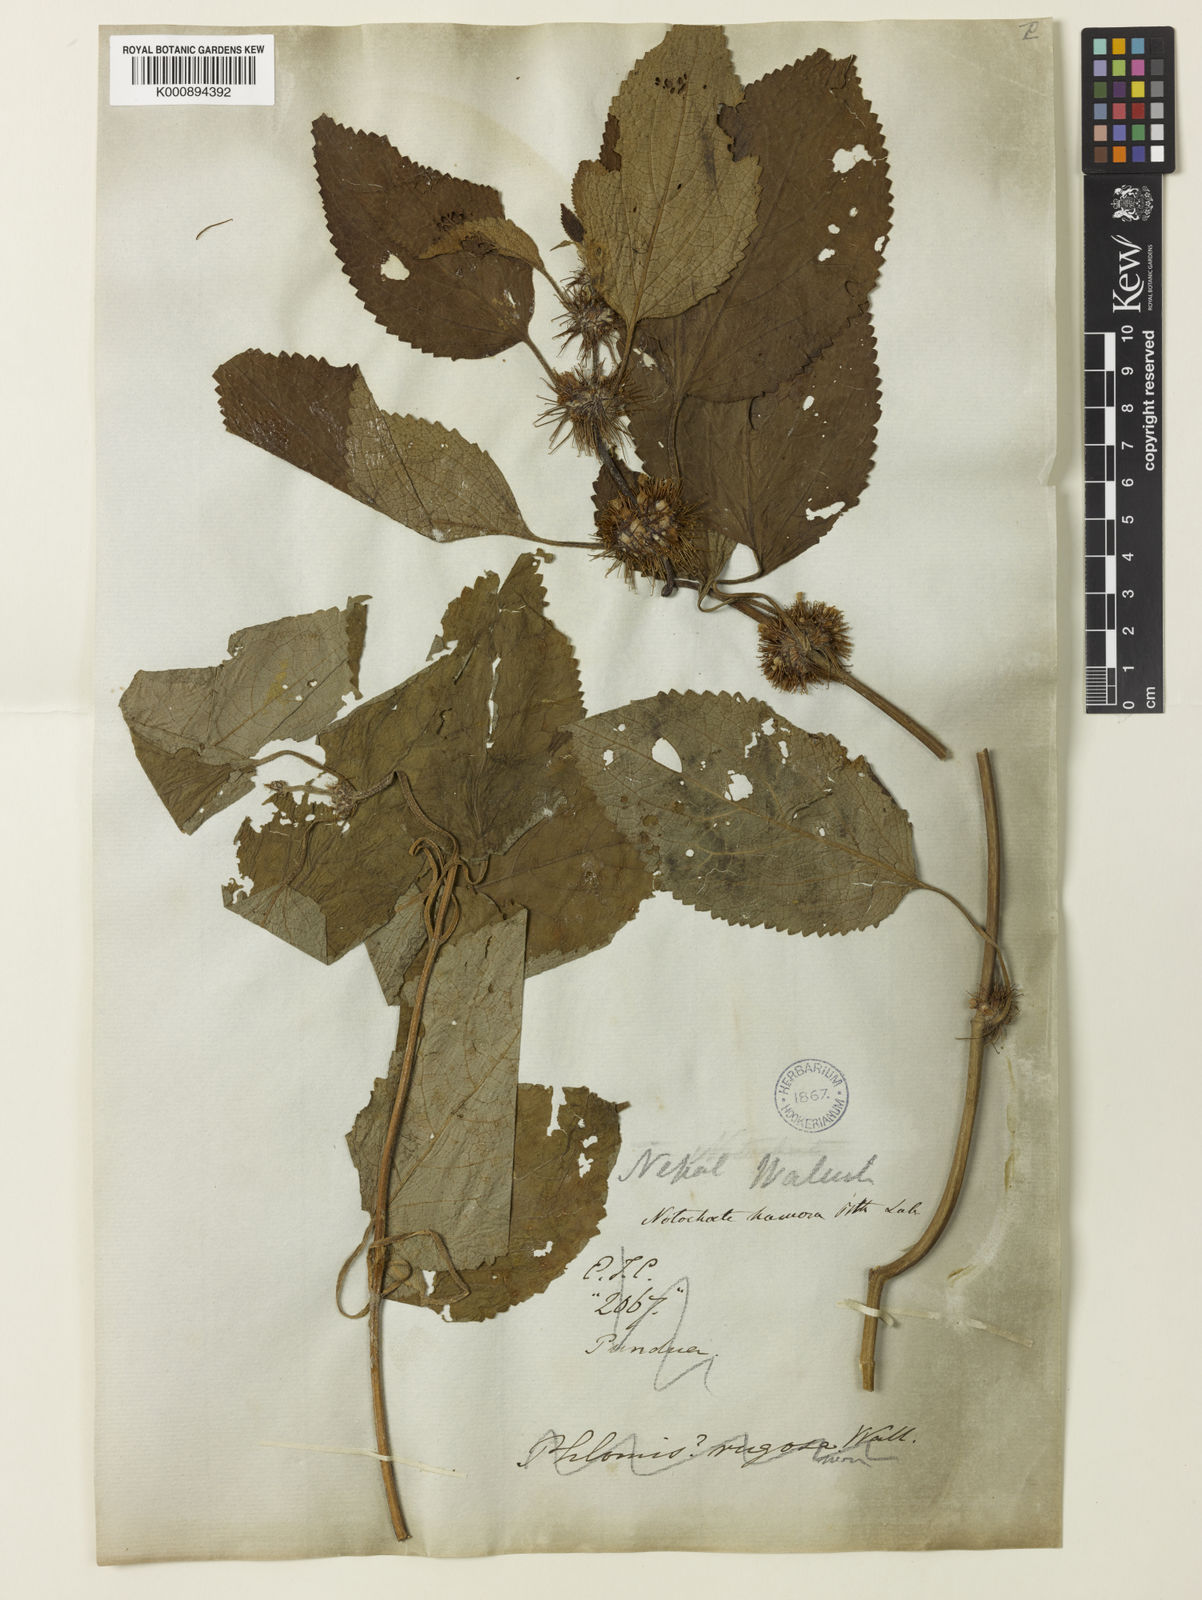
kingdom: Plantae
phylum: Tracheophyta
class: Magnoliopsida
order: Lamiales
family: Lamiaceae
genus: Phlomoides
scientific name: Phlomoides hamosa
